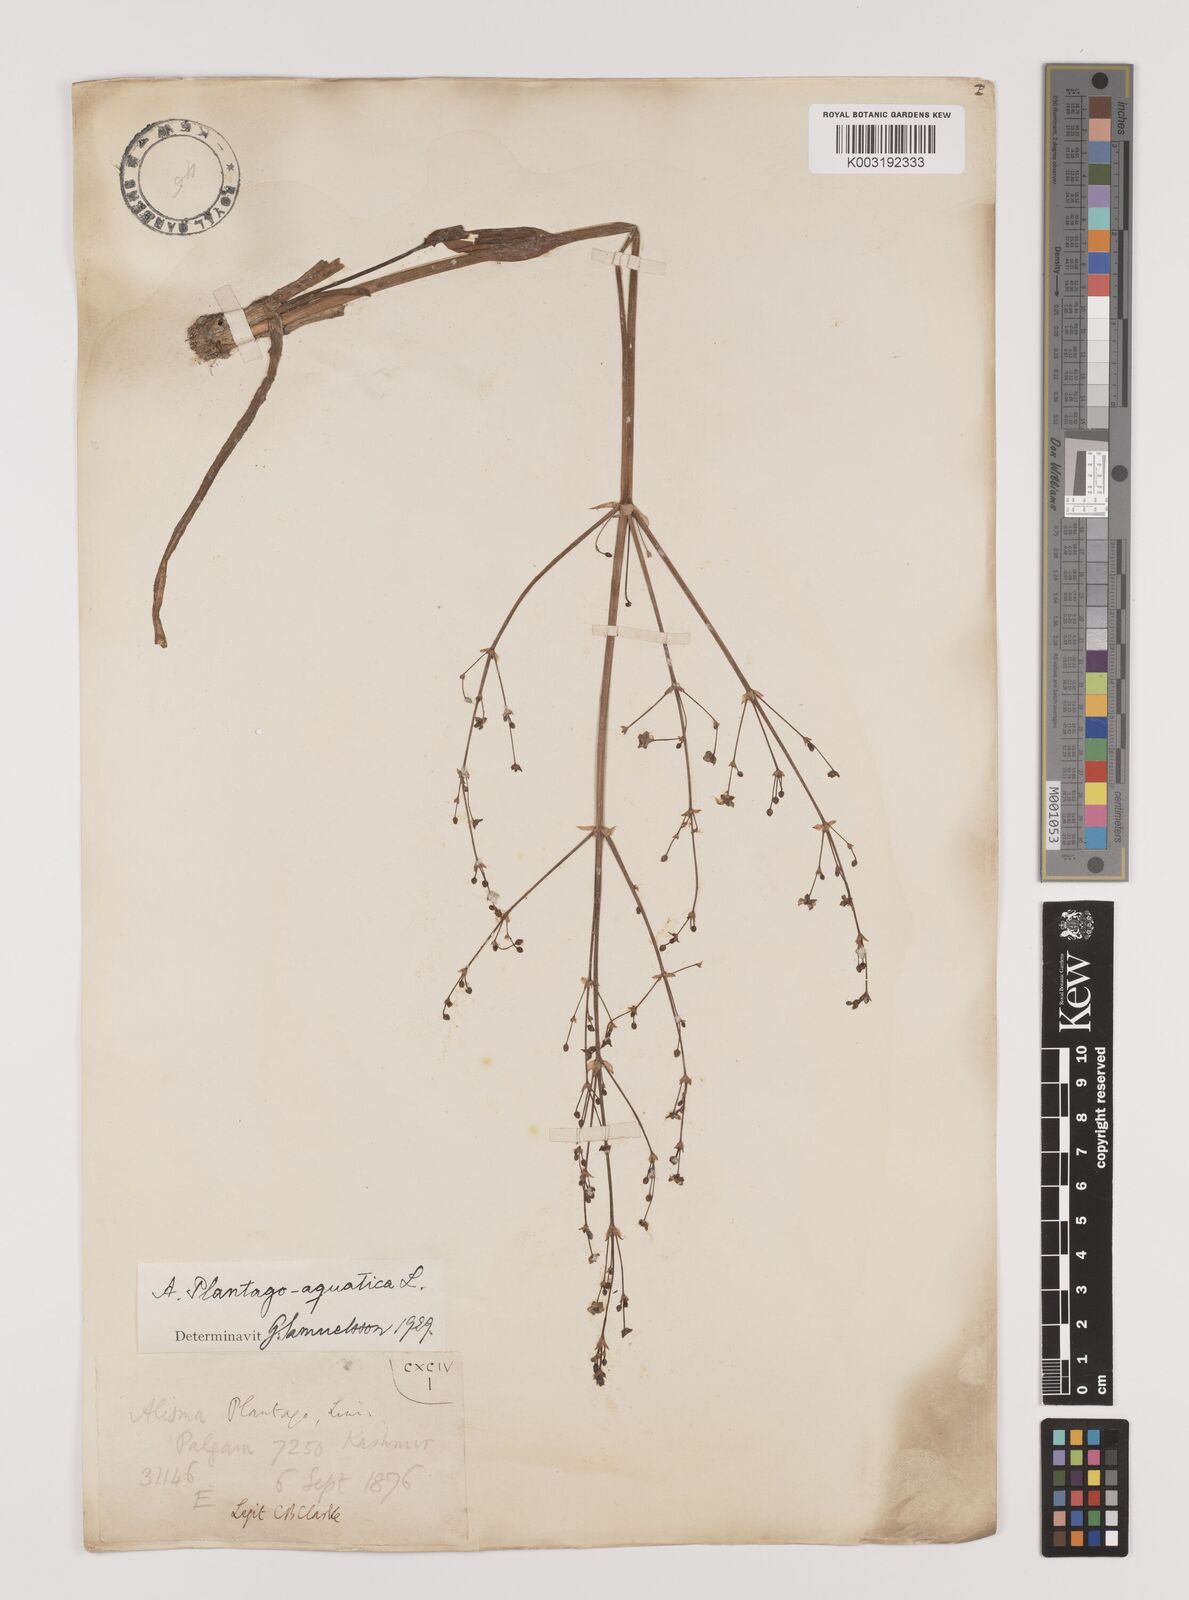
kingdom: Plantae
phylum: Tracheophyta
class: Liliopsida
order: Alismatales
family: Alismataceae
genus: Alisma
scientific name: Alisma plantago-aquatica
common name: Water-plantain
